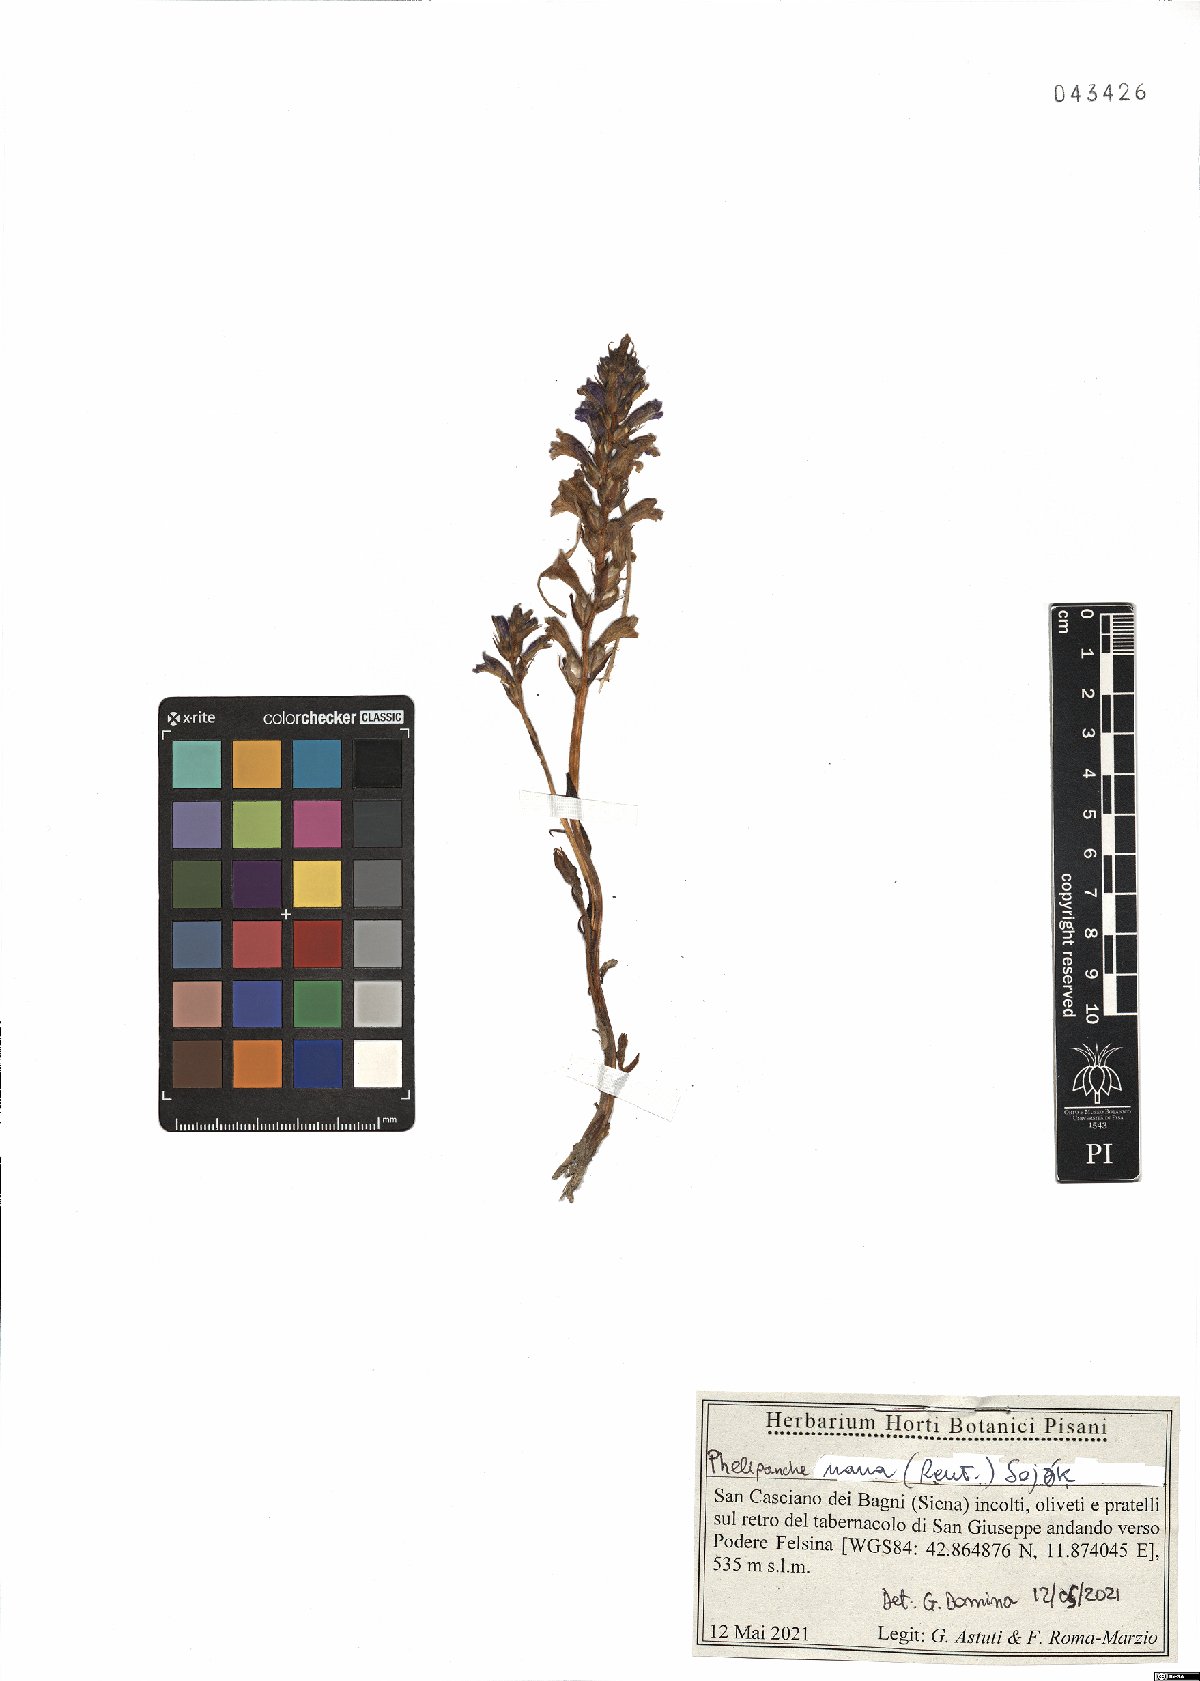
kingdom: Plantae
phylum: Tracheophyta
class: Magnoliopsida
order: Lamiales
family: Orobanchaceae
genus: Phelipanche
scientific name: Phelipanche mutelii
